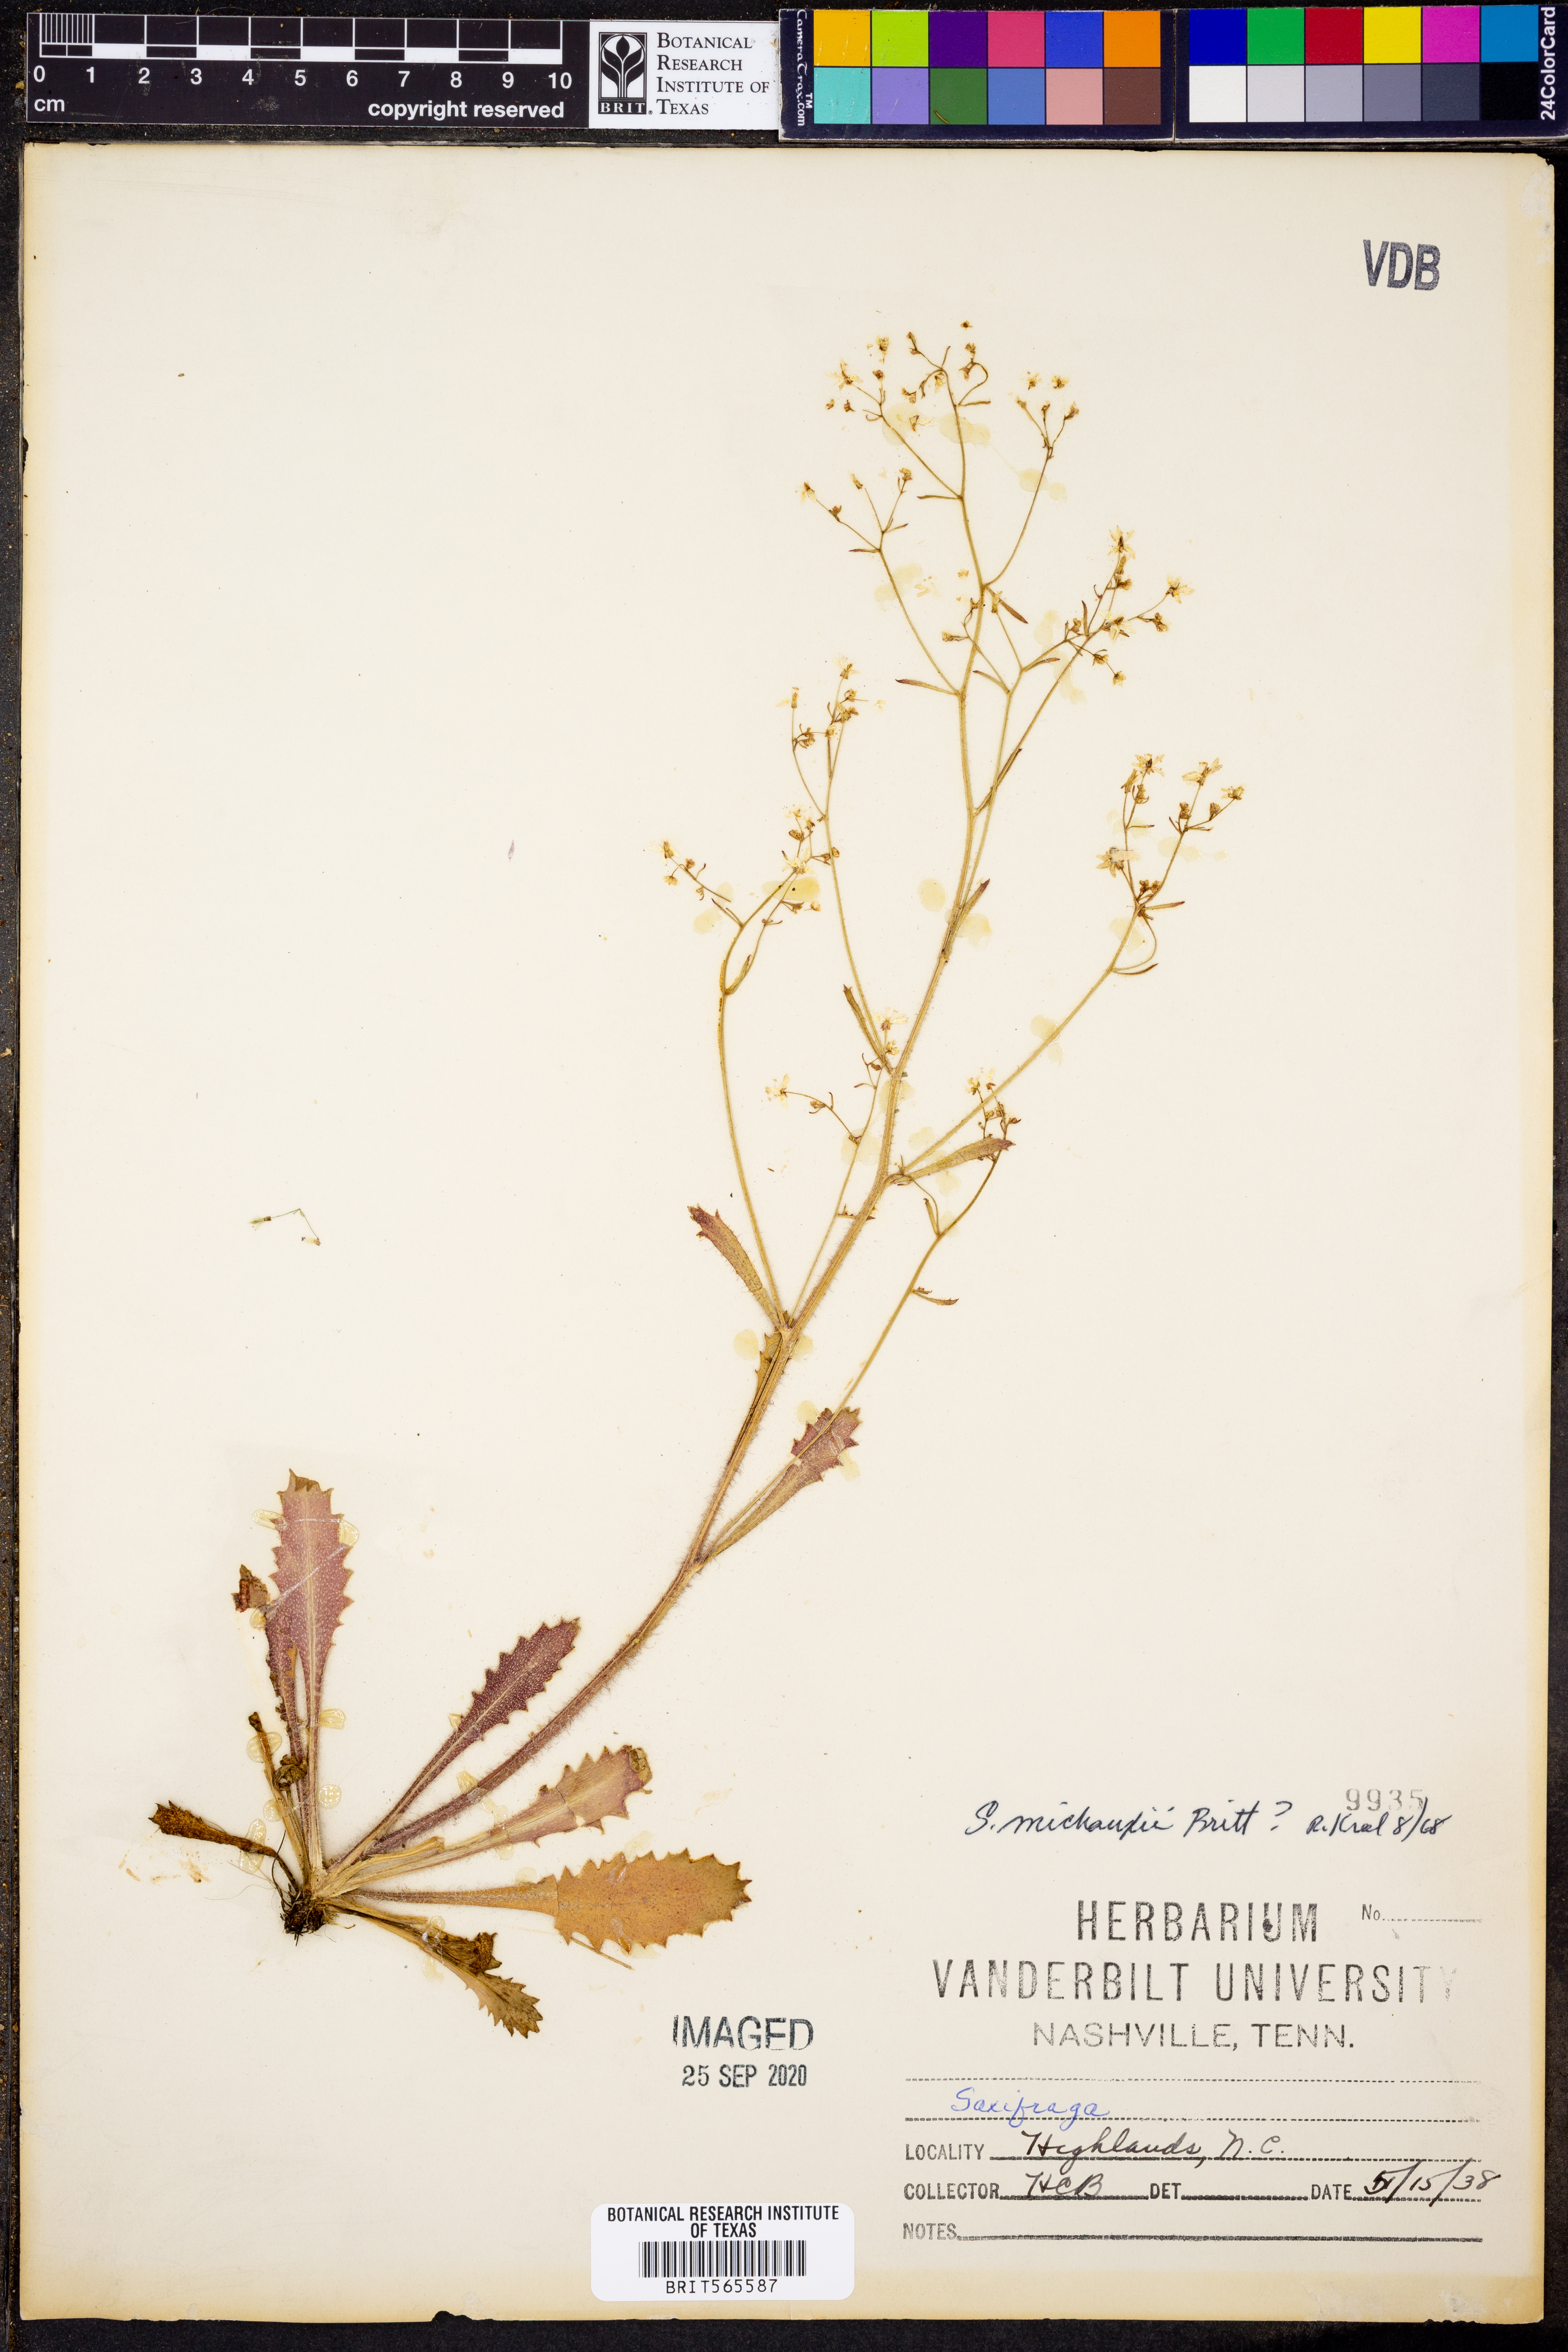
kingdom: Plantae
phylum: Tracheophyta
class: Magnoliopsida
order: Saxifragales
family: Saxifragaceae
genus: Micranthes
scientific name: Micranthes petiolaris
